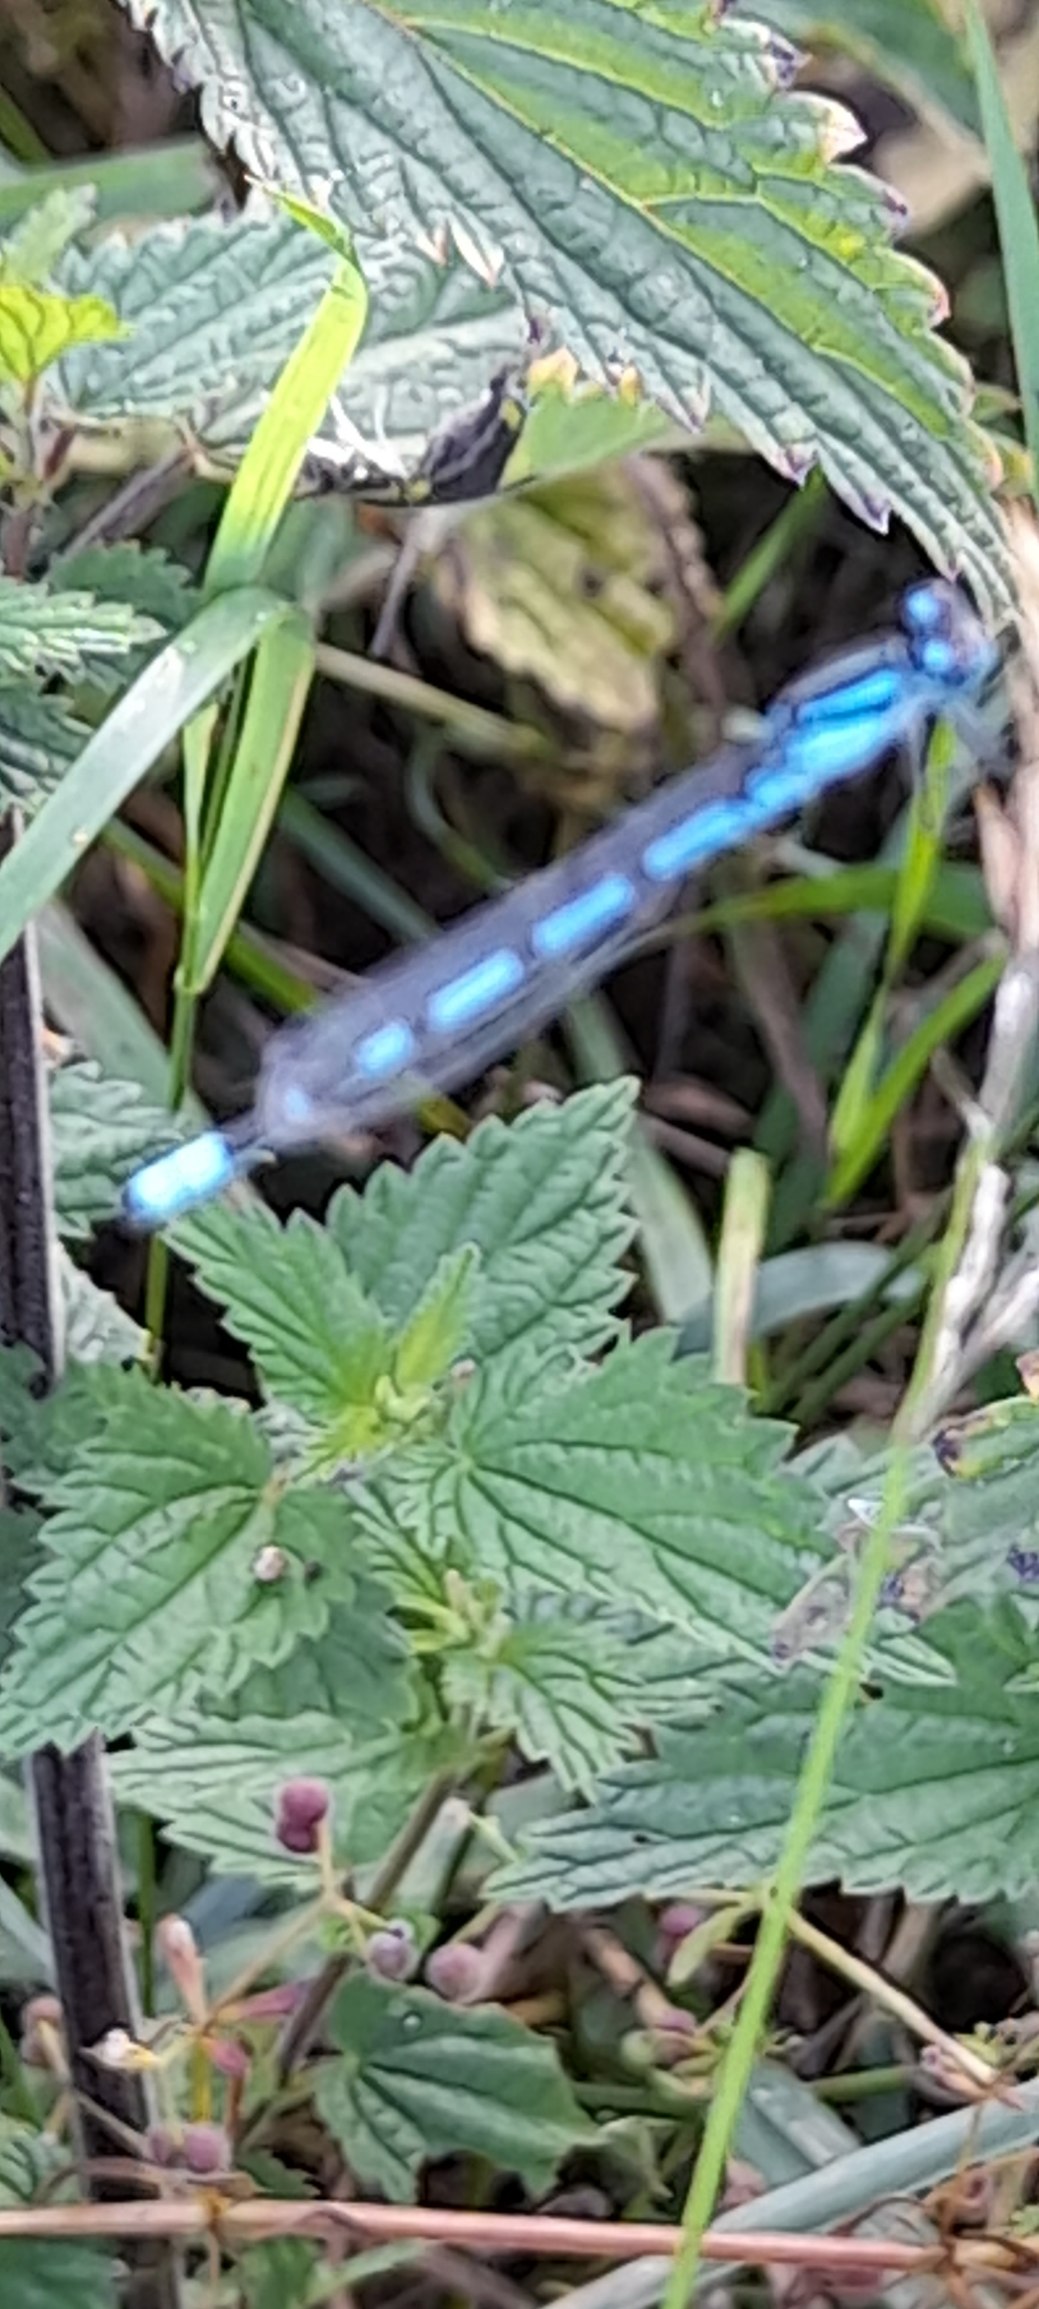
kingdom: Animalia
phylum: Arthropoda
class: Insecta
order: Odonata
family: Coenagrionidae
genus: Enallagma
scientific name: Enallagma cyathigerum
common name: Almindelig vandnymfe
